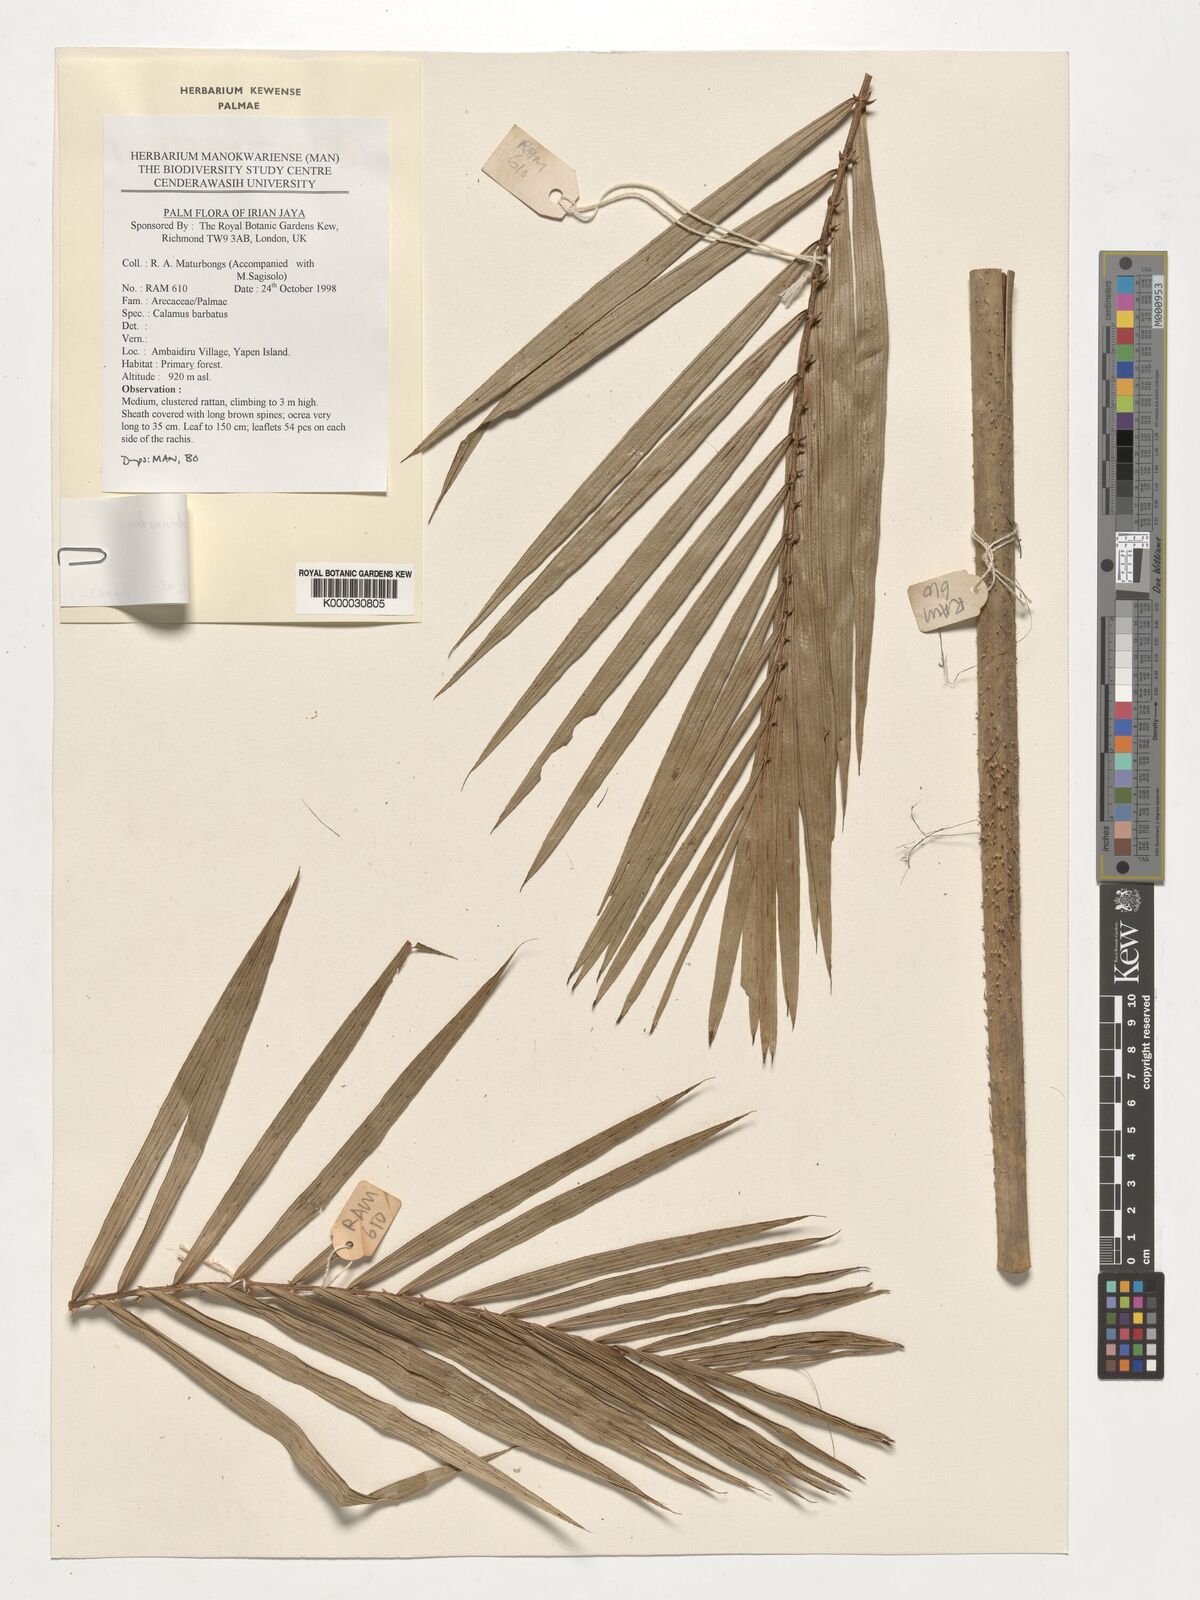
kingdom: Plantae
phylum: Tracheophyta
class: Liliopsida
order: Arecales
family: Arecaceae
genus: Calamus
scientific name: Calamus zebrinus
